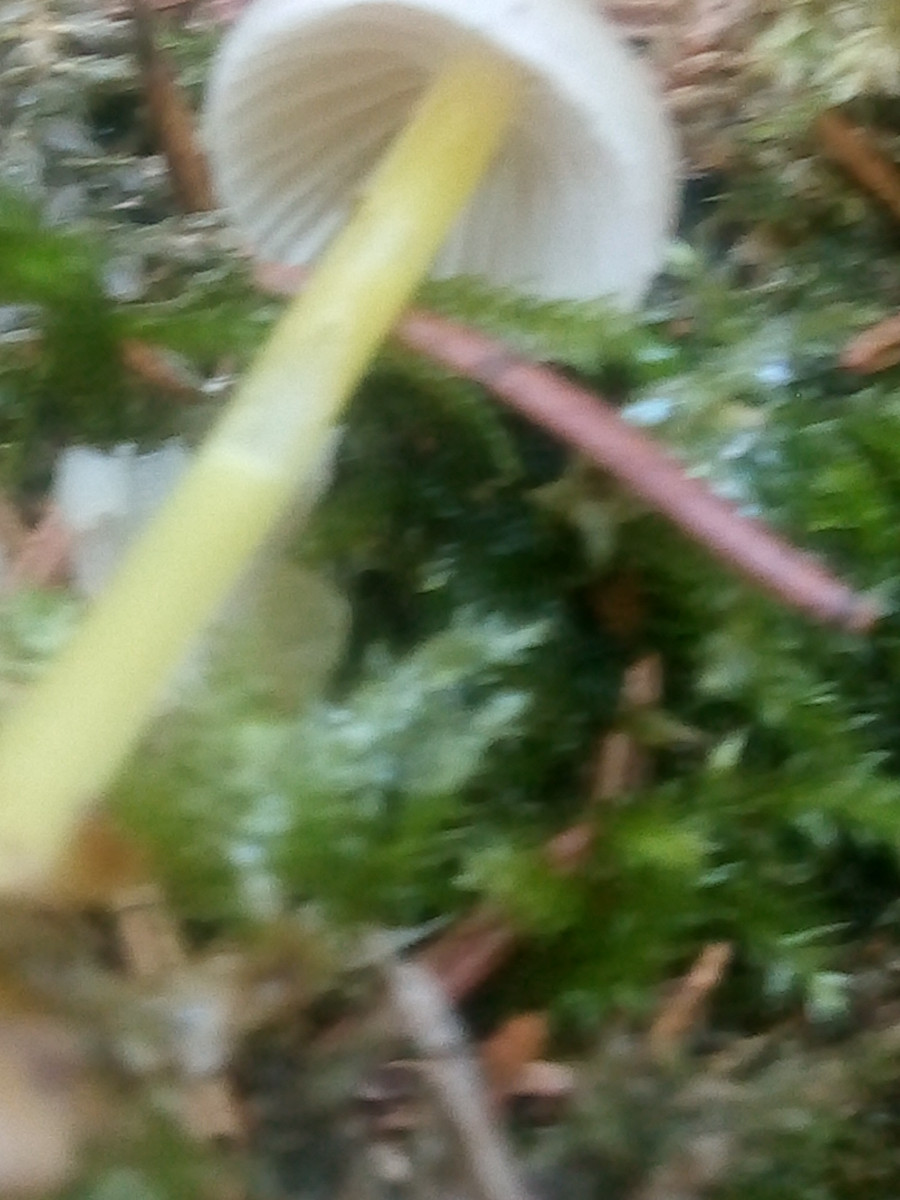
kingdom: Fungi
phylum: Basidiomycota
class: Agaricomycetes
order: Agaricales
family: Mycenaceae
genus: Mycena
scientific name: Mycena epipterygia
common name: gulstokket huesvamp
